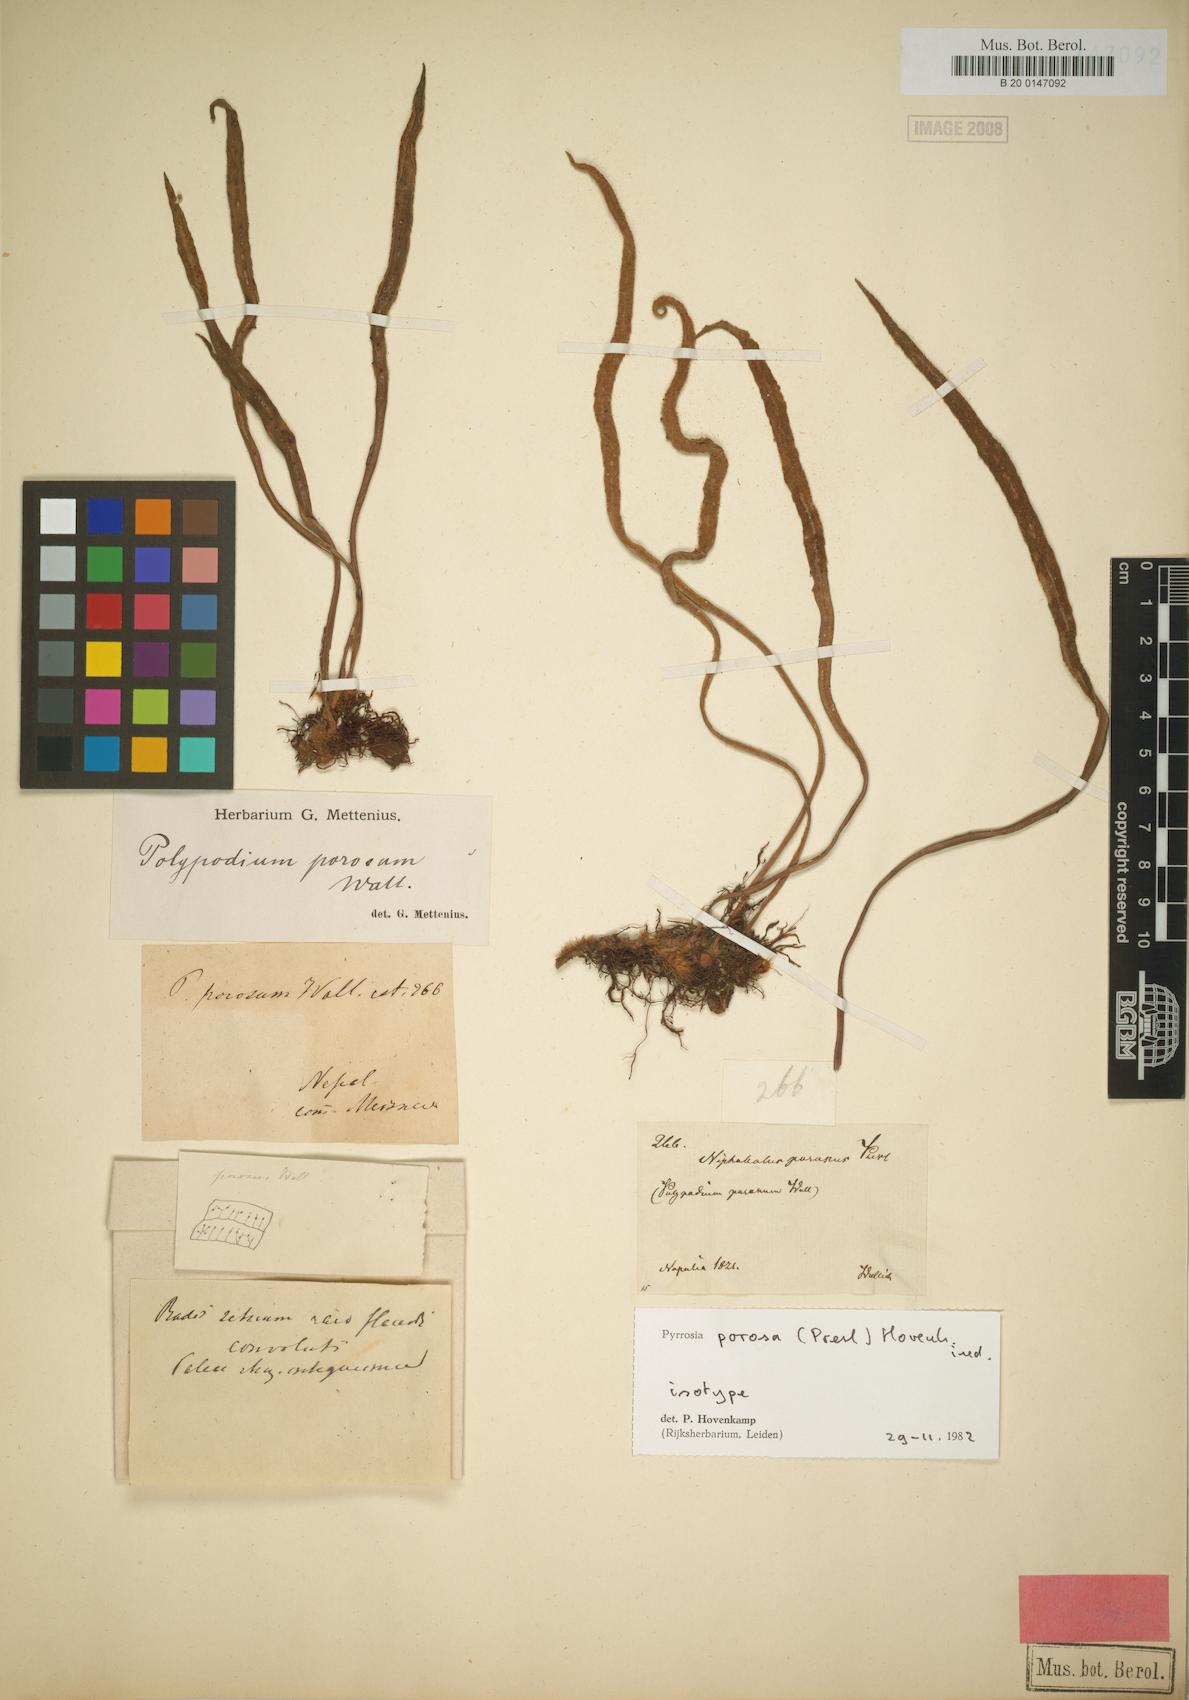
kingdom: Plantae
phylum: Tracheophyta
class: Polypodiopsida
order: Polypodiales
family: Polypodiaceae
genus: Pyrrosia
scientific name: Pyrrosia porosa
